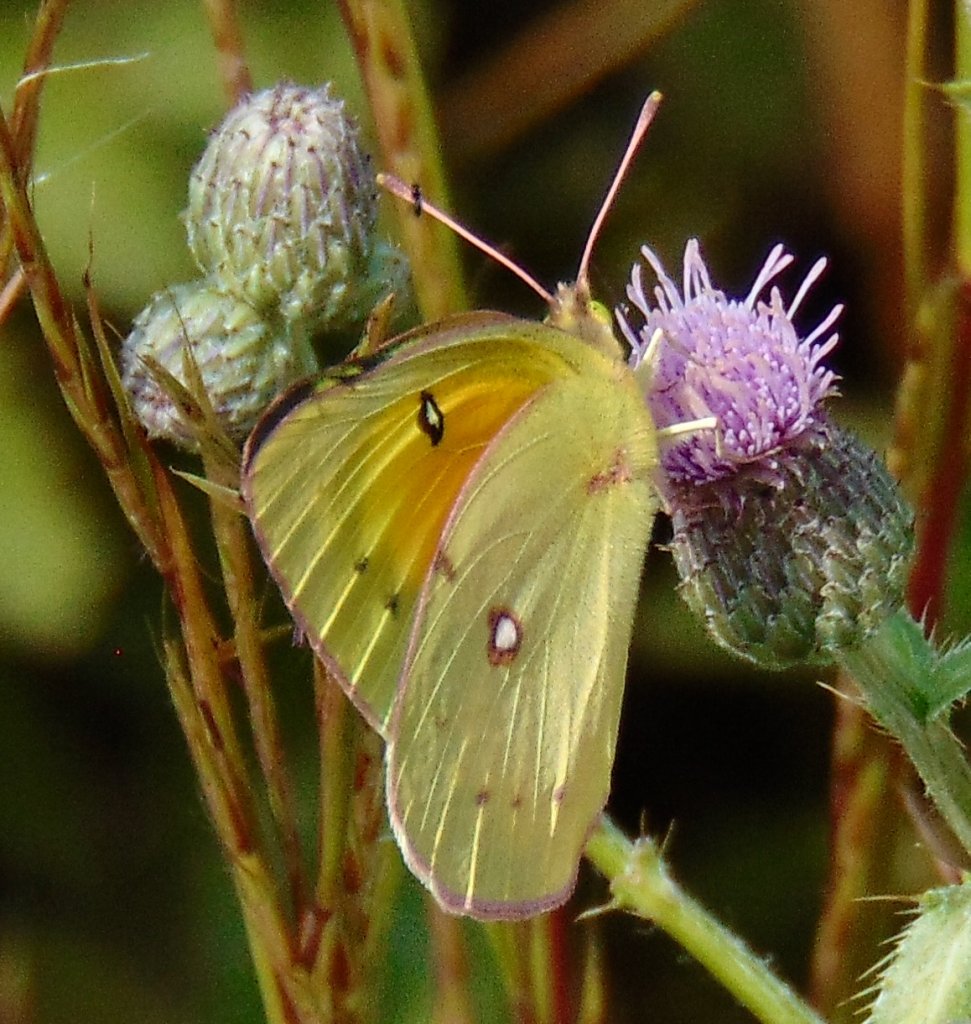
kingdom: Animalia
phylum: Arthropoda
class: Insecta
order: Lepidoptera
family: Pieridae
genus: Colias
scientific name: Colias eurytheme
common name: Orange Sulphur
